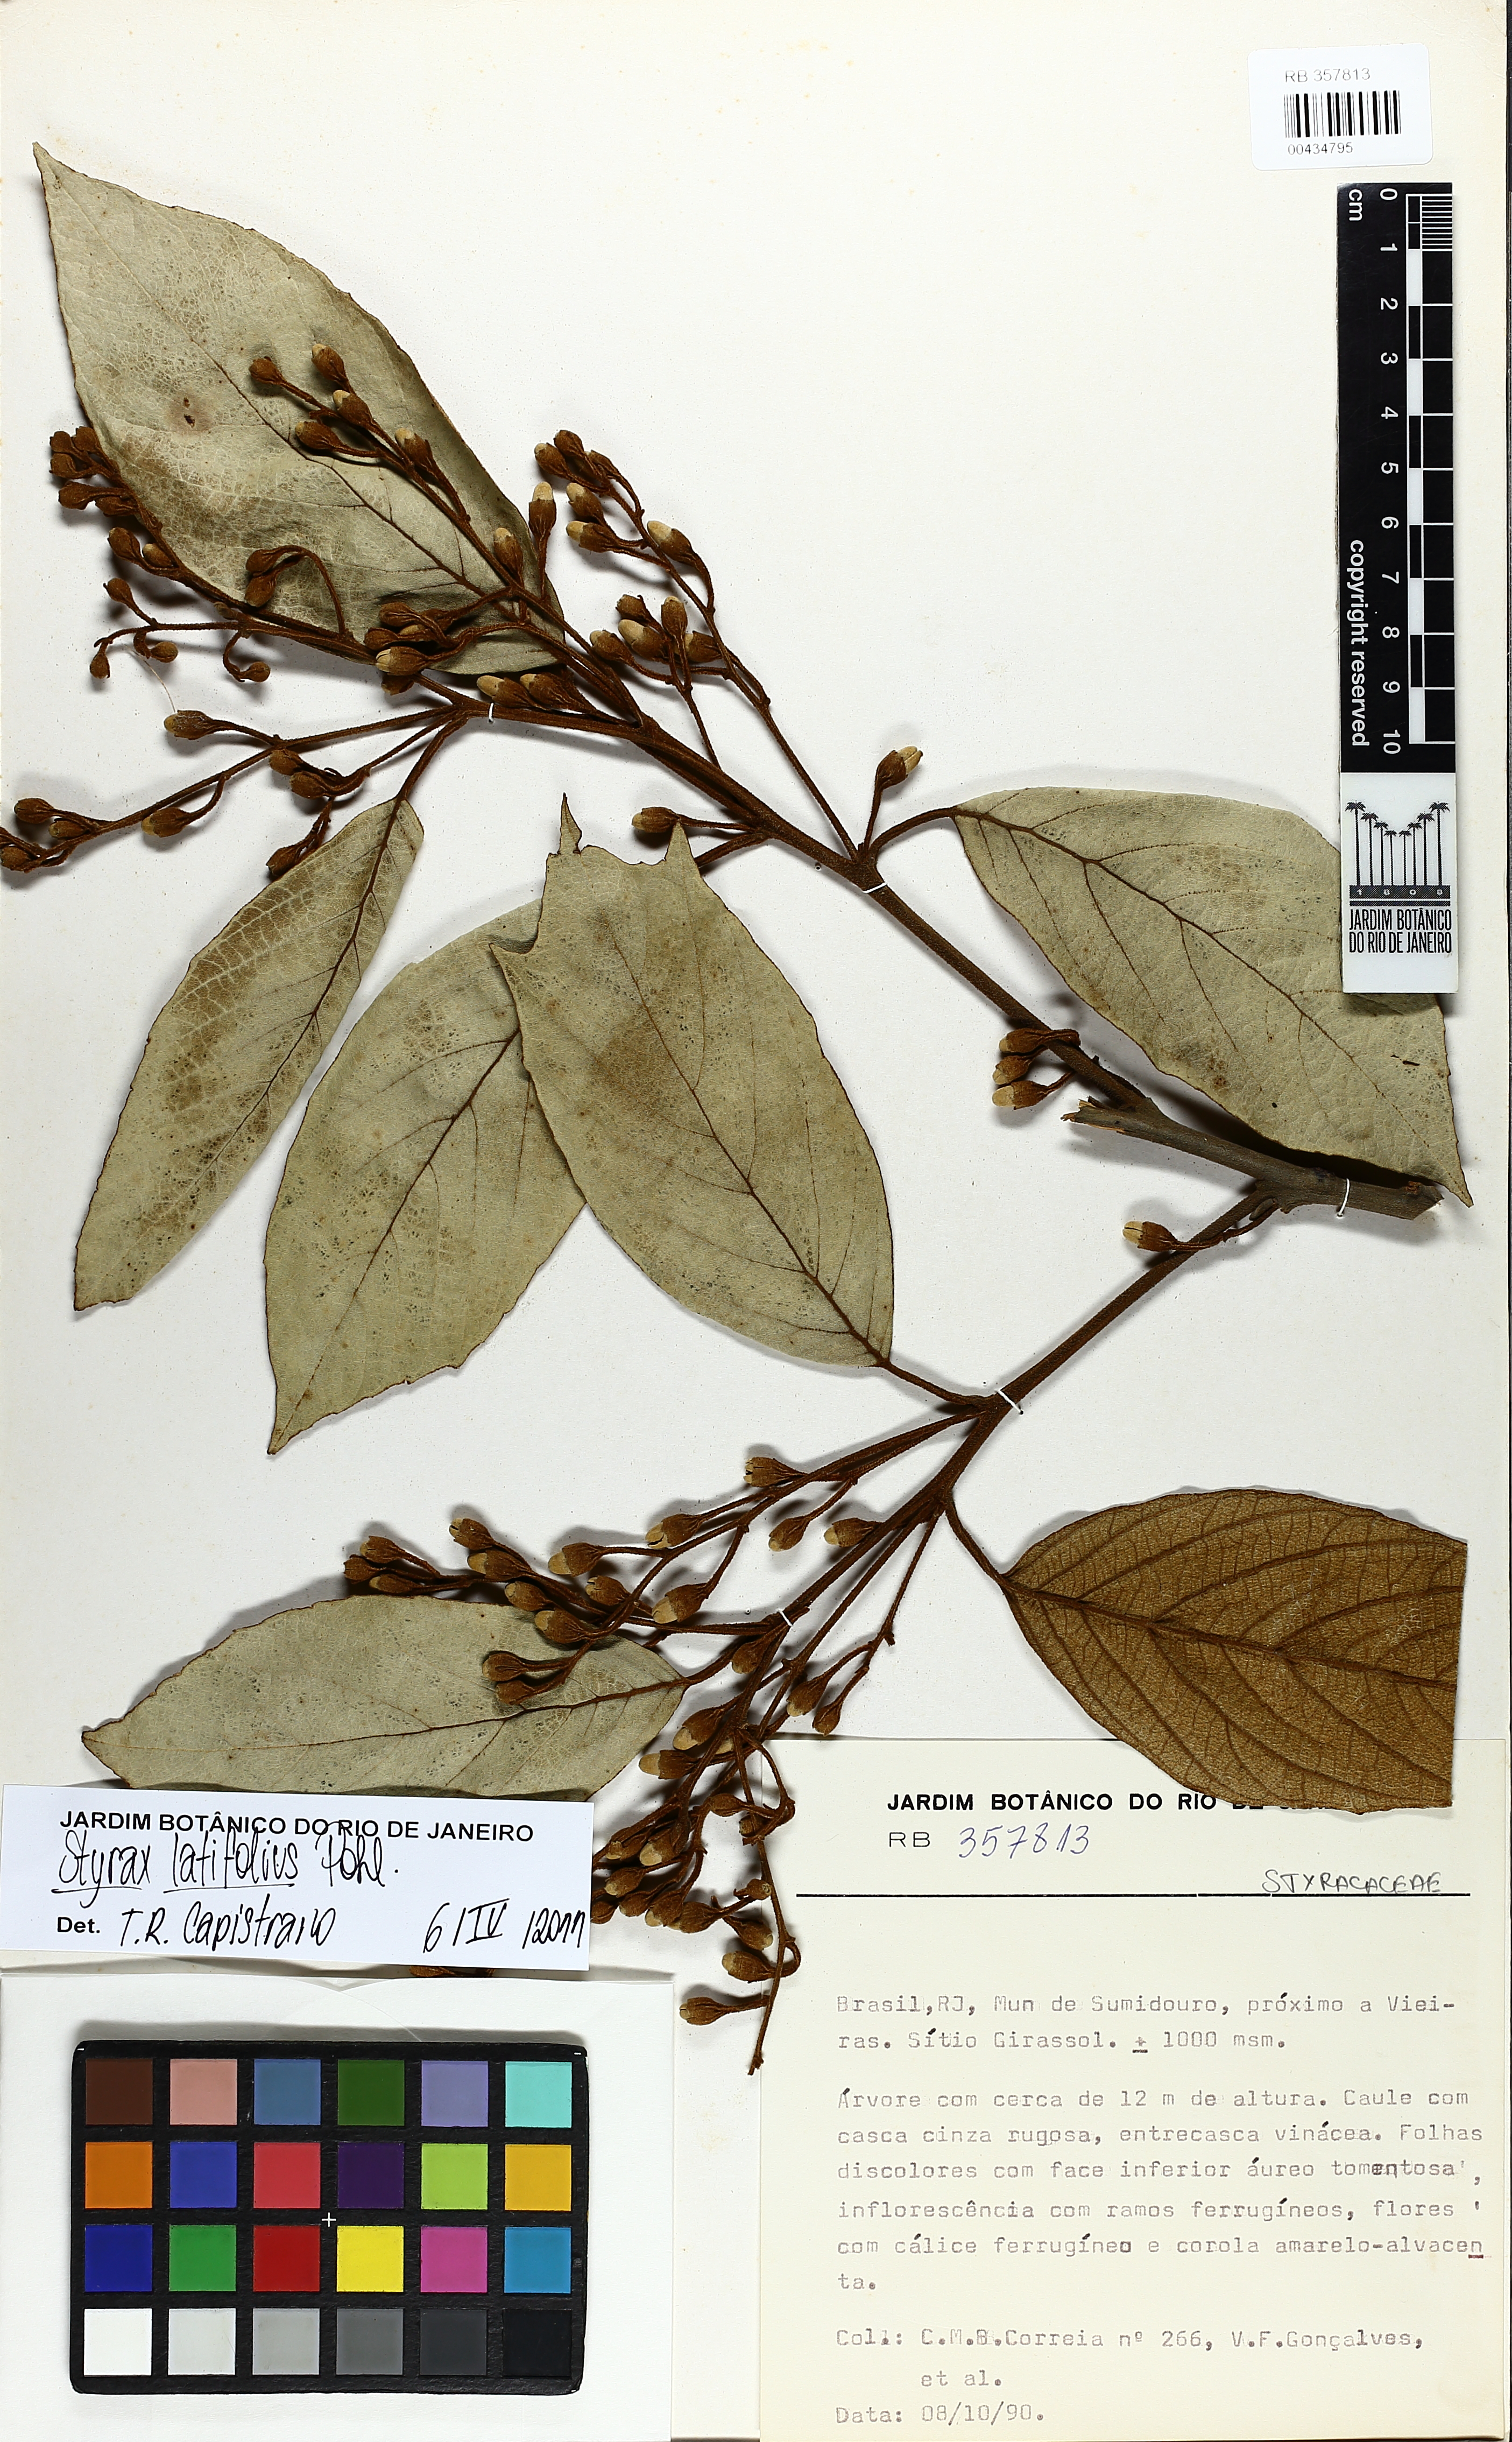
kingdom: Plantae
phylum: Tracheophyta
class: Magnoliopsida
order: Ericales
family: Styracaceae
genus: Styrax
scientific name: Styrax latifolius
